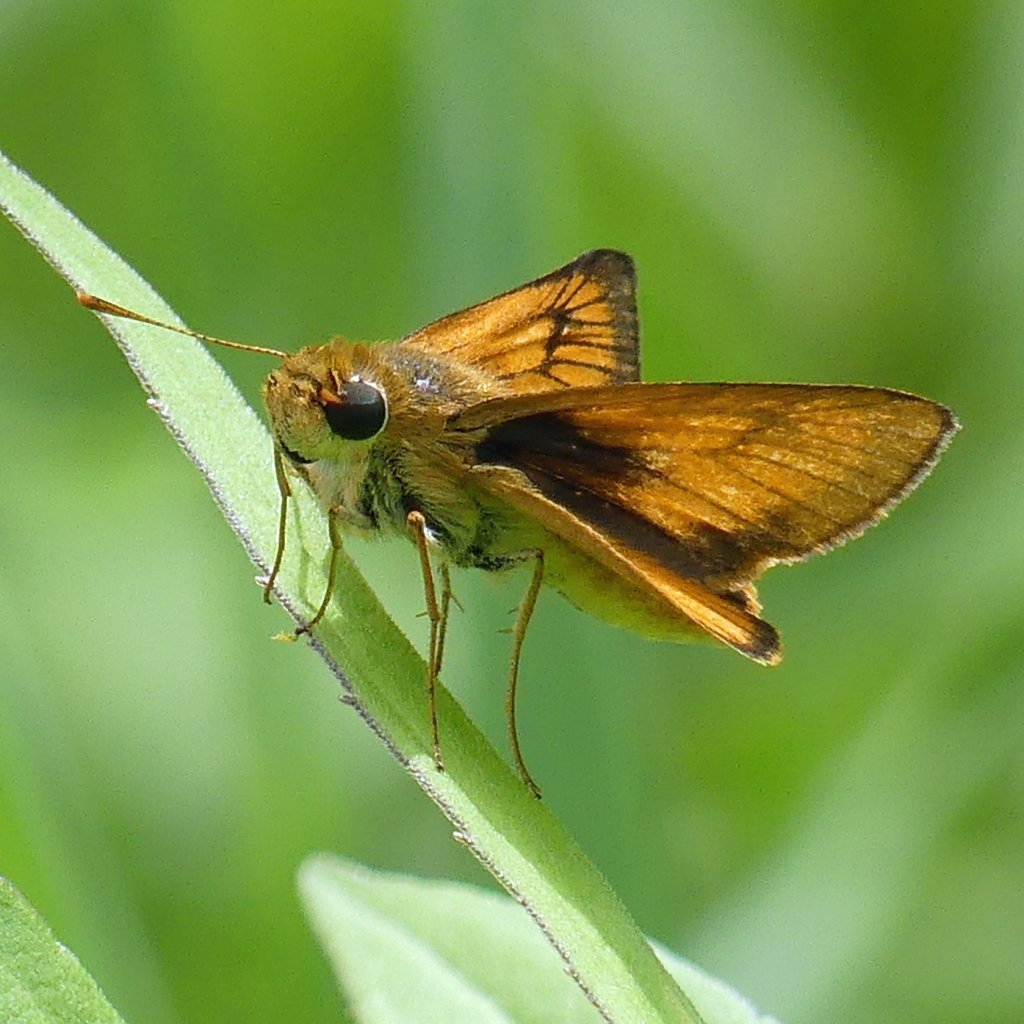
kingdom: Animalia
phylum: Arthropoda
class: Insecta
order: Lepidoptera
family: Hesperiidae
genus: Atrytone
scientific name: Atrytone delaware
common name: Delaware Skipper
